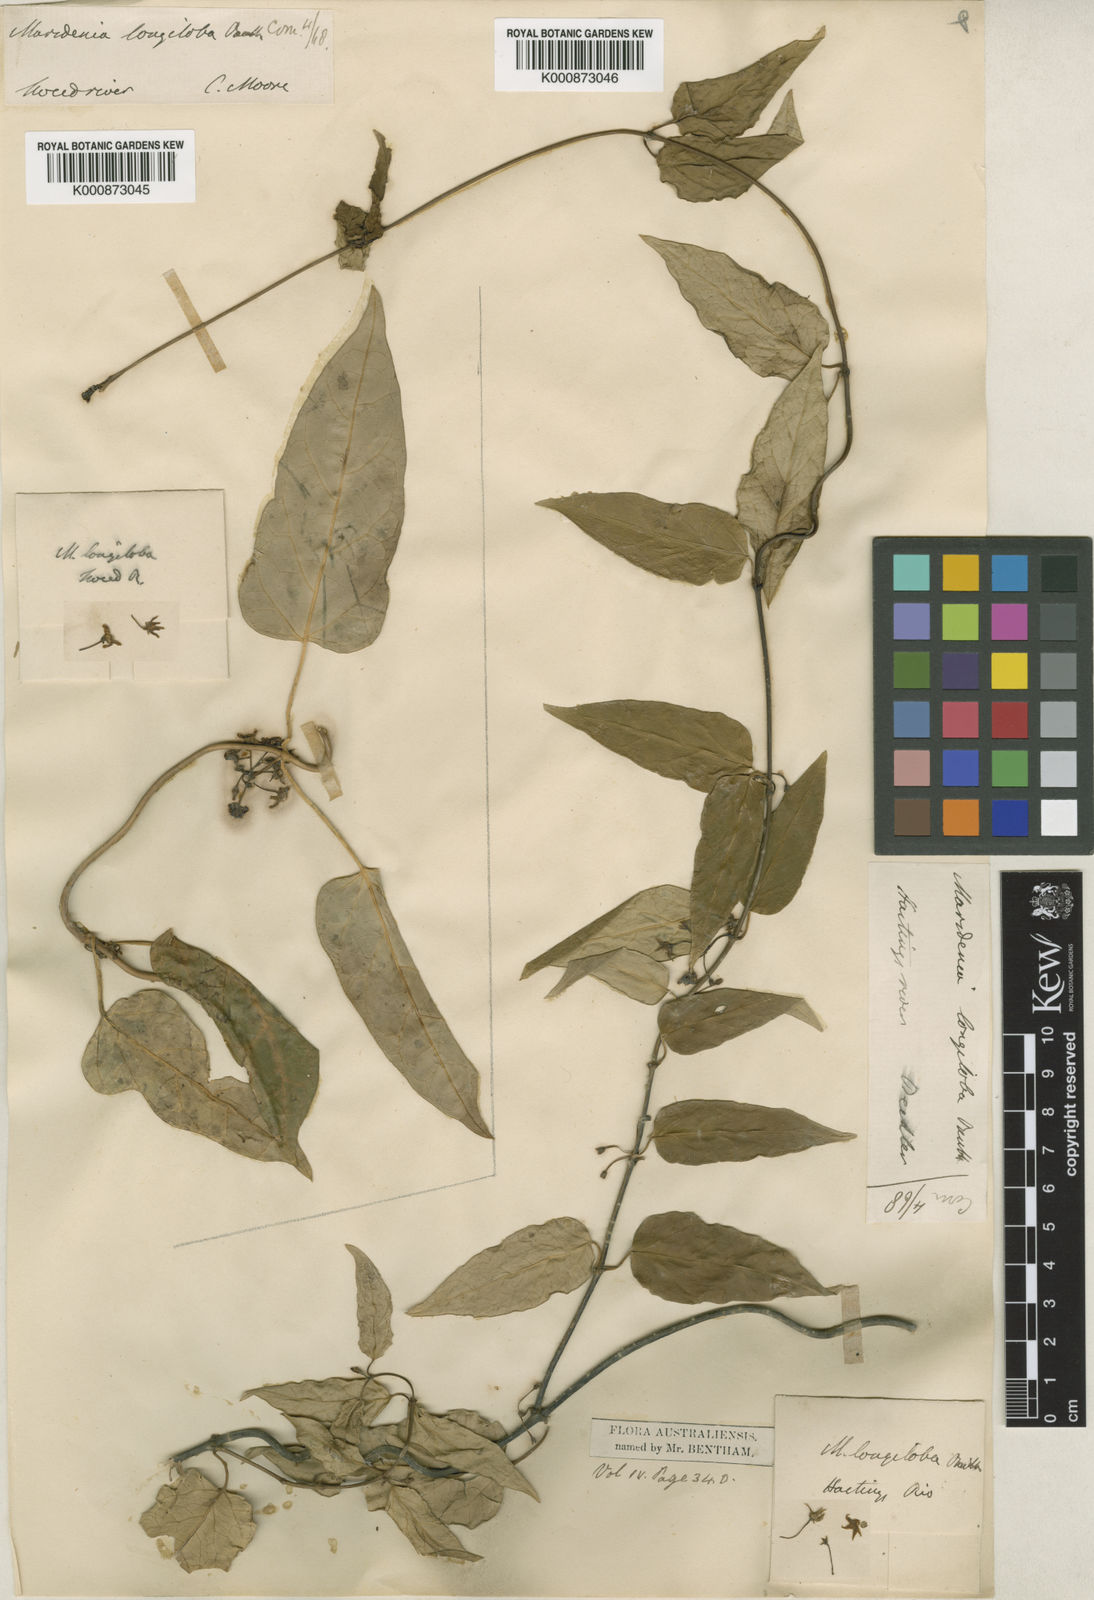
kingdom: Plantae
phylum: Tracheophyta
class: Magnoliopsida
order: Gentianales
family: Apocynaceae
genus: Leichhardtia
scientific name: Leichhardtia longiloba
